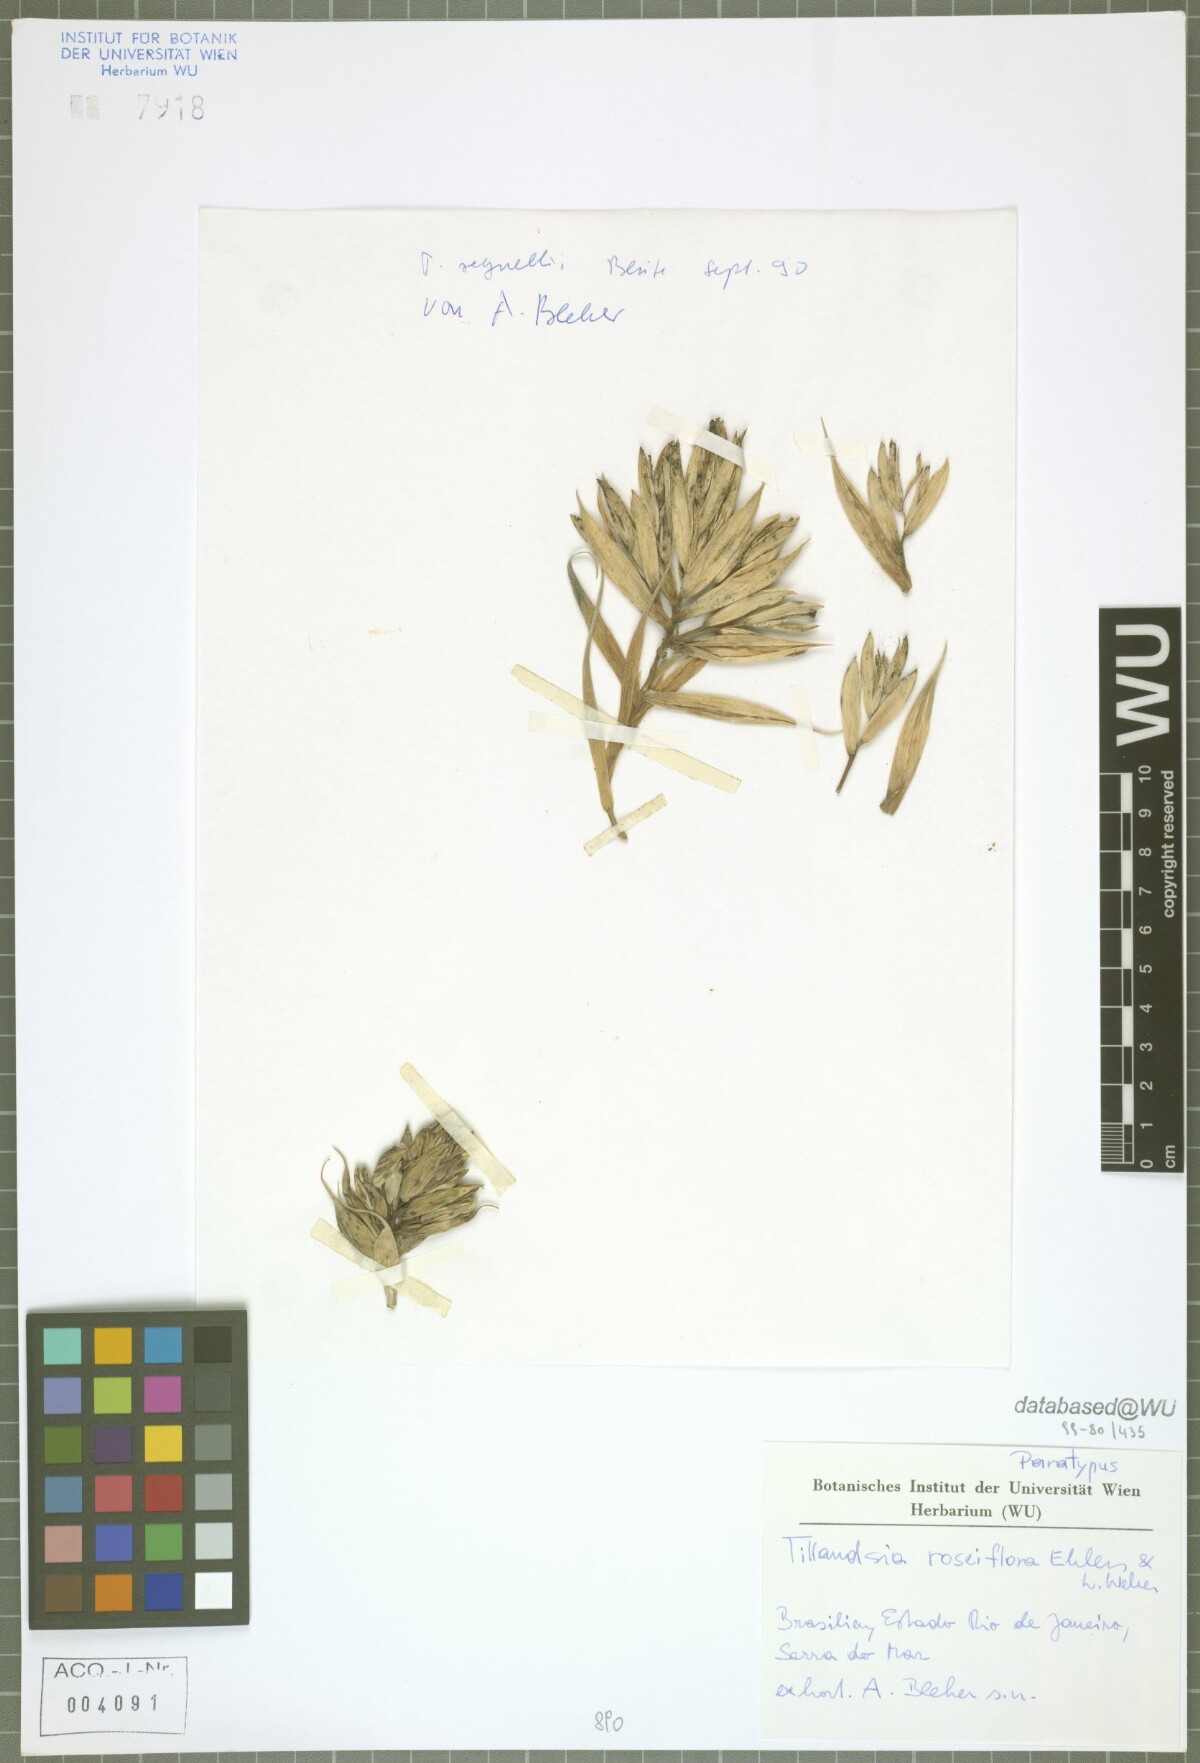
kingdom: Plantae
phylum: Tracheophyta
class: Liliopsida
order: Poales
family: Bromeliaceae
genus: Tillandsia
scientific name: Tillandsia roseiflora
